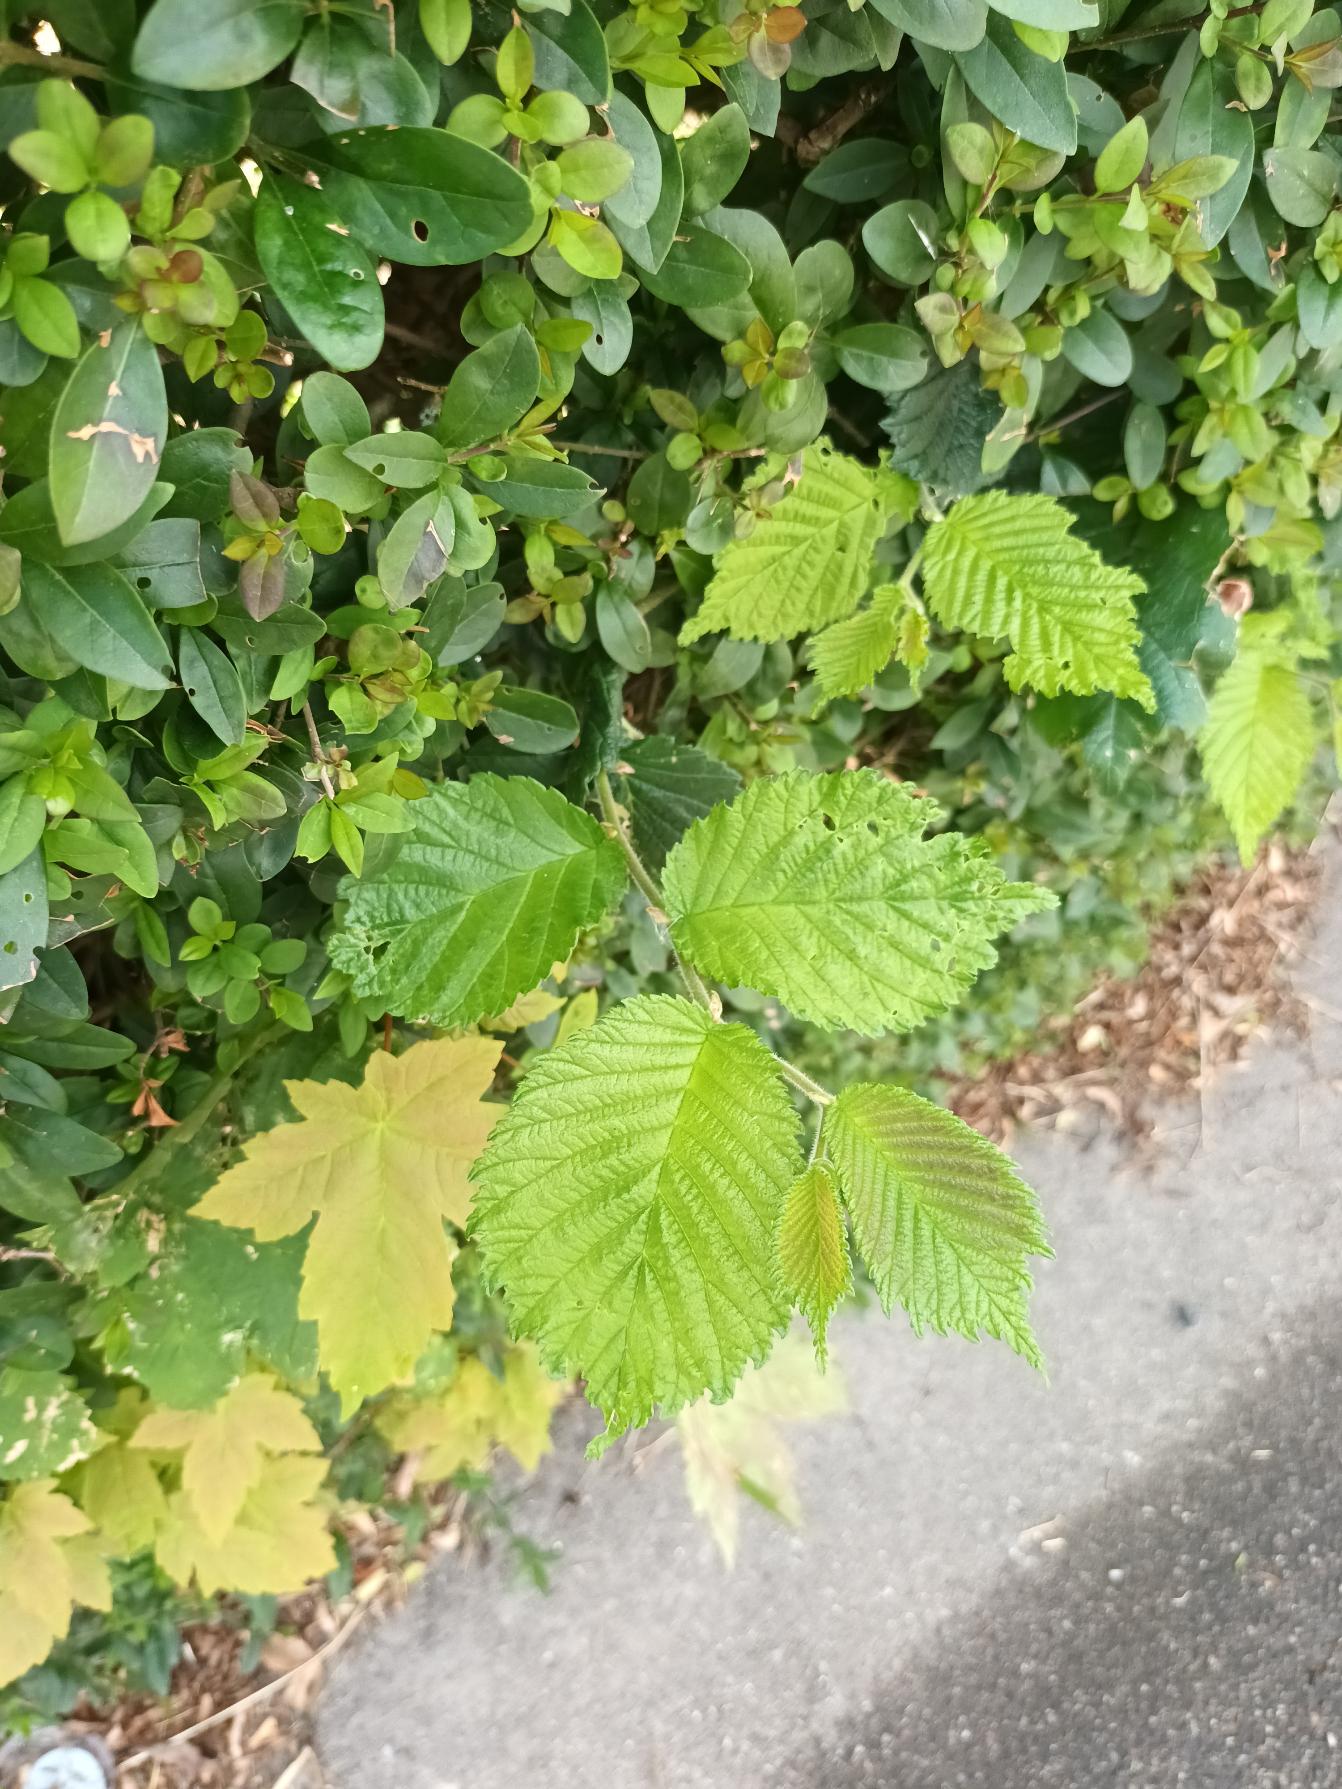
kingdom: Plantae
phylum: Tracheophyta
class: Magnoliopsida
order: Rosales
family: Ulmaceae
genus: Ulmus
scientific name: Ulmus glabra
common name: Skov-elm/storbladet elm
